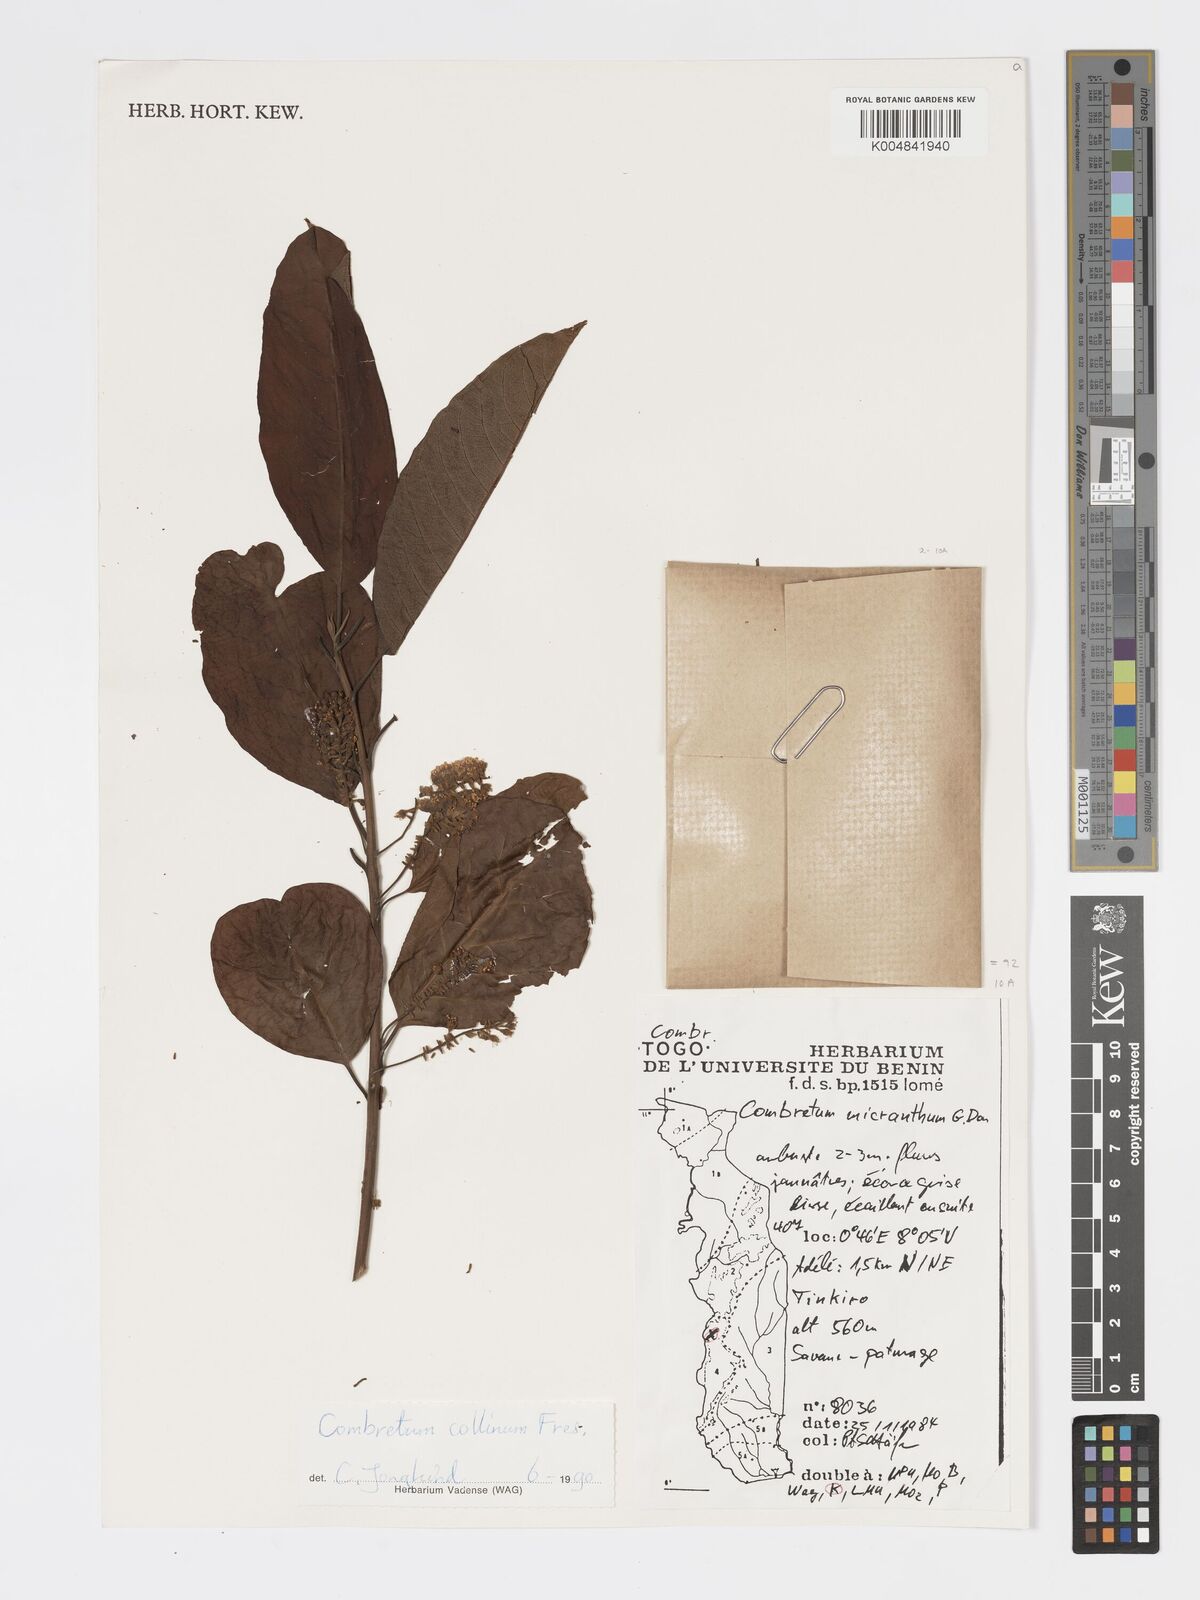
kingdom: Plantae
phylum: Tracheophyta
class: Magnoliopsida
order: Myrtales
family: Combretaceae
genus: Combretum
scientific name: Combretum collinum
